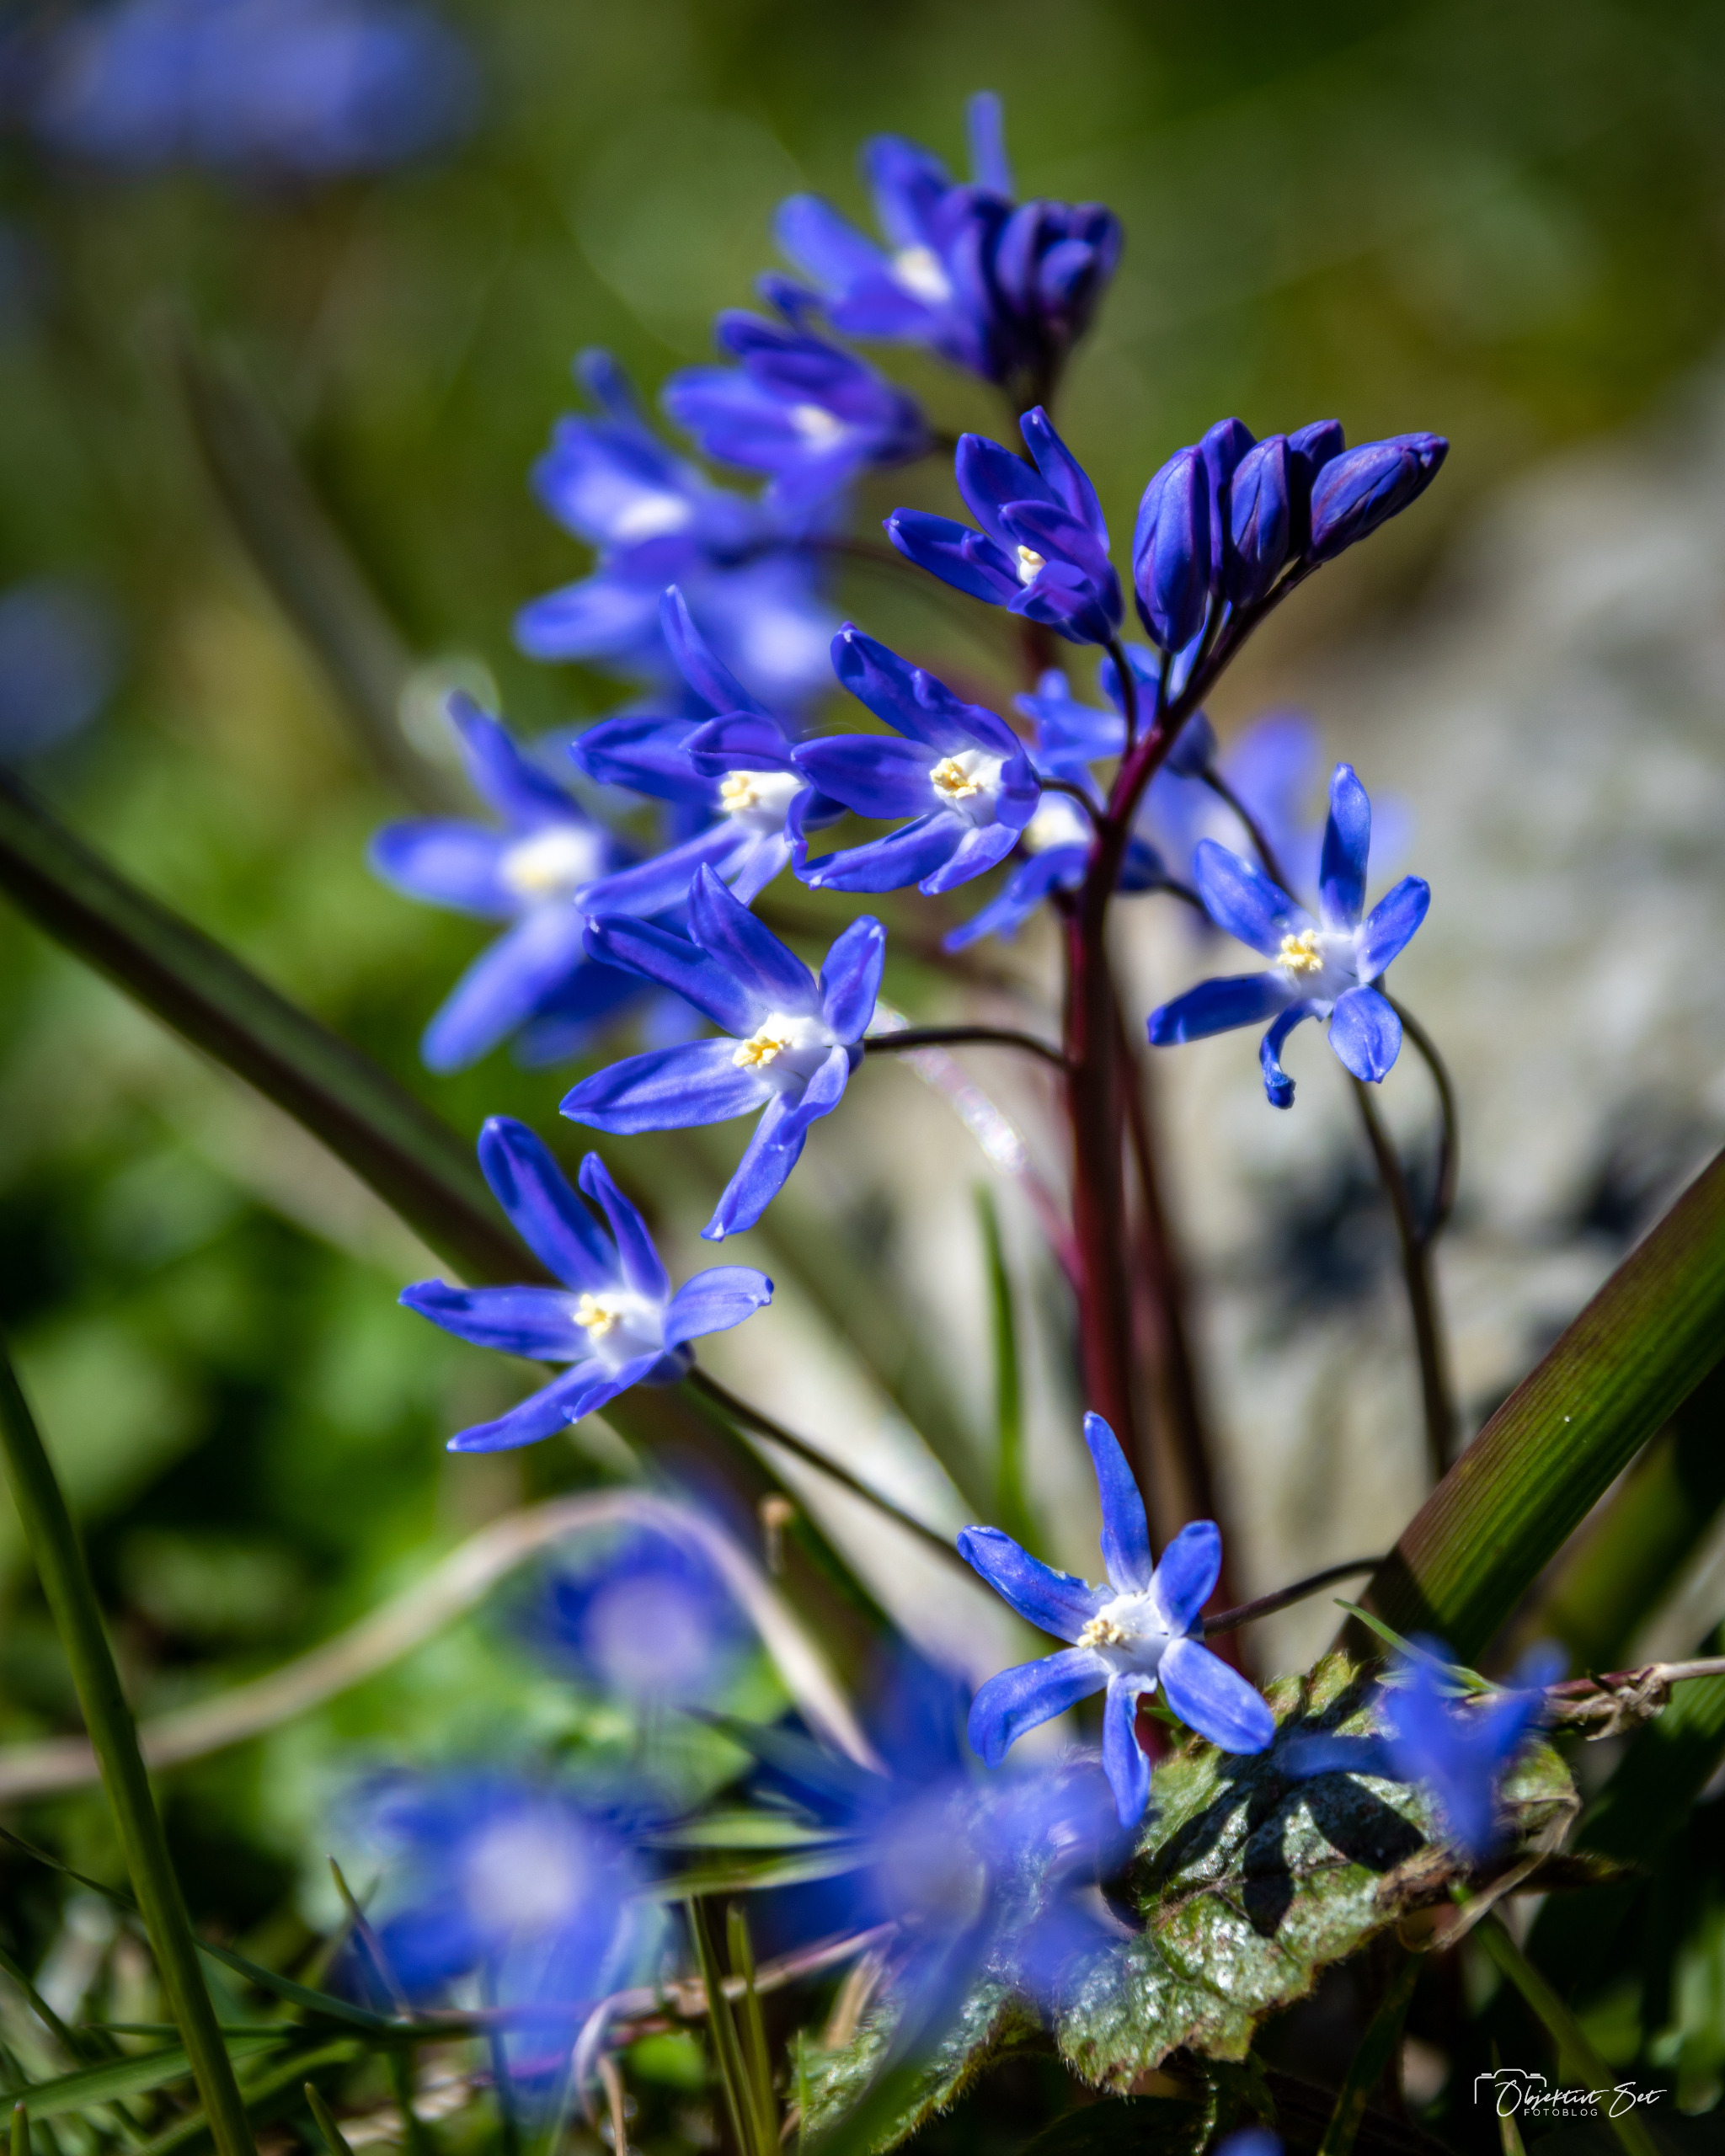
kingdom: Plantae
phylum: Tracheophyta
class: Liliopsida
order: Asparagales
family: Asparagaceae
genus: Scilla
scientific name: Scilla sardensis
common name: Liden snepryd
